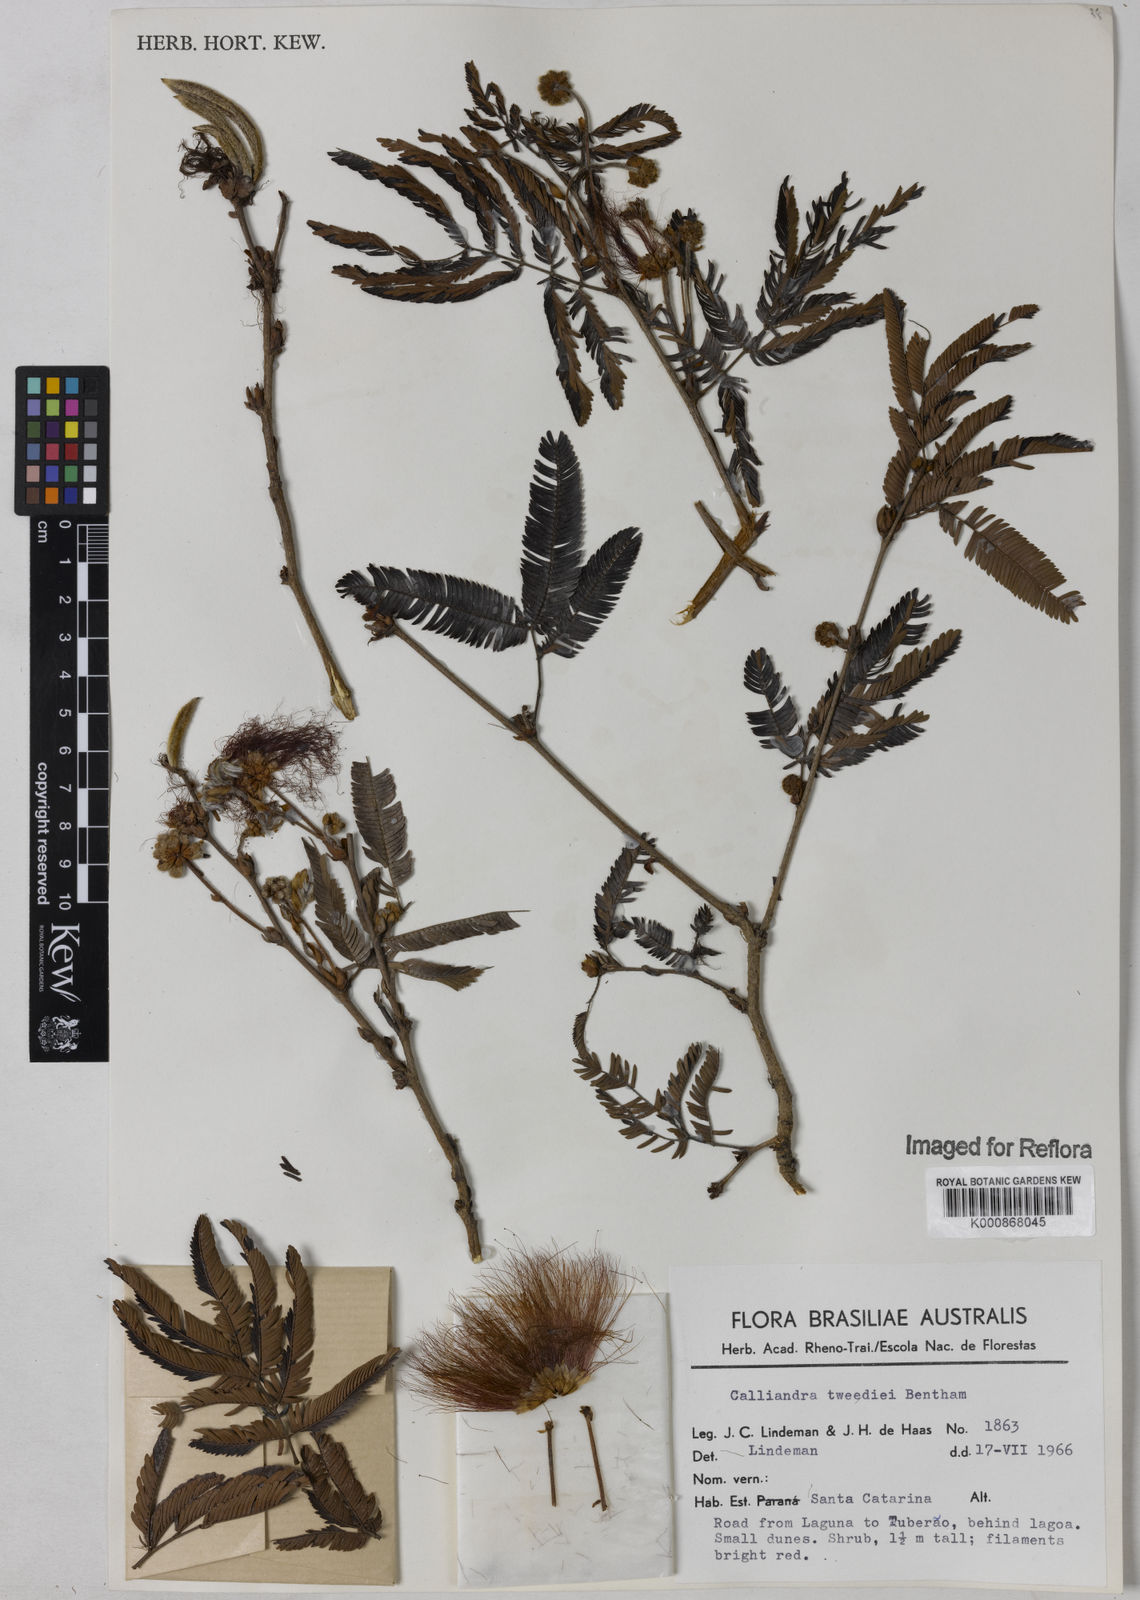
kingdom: Plantae
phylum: Tracheophyta
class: Magnoliopsida
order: Fabales
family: Fabaceae
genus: Calliandra
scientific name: Calliandra tweediei
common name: Mexican flamebush
